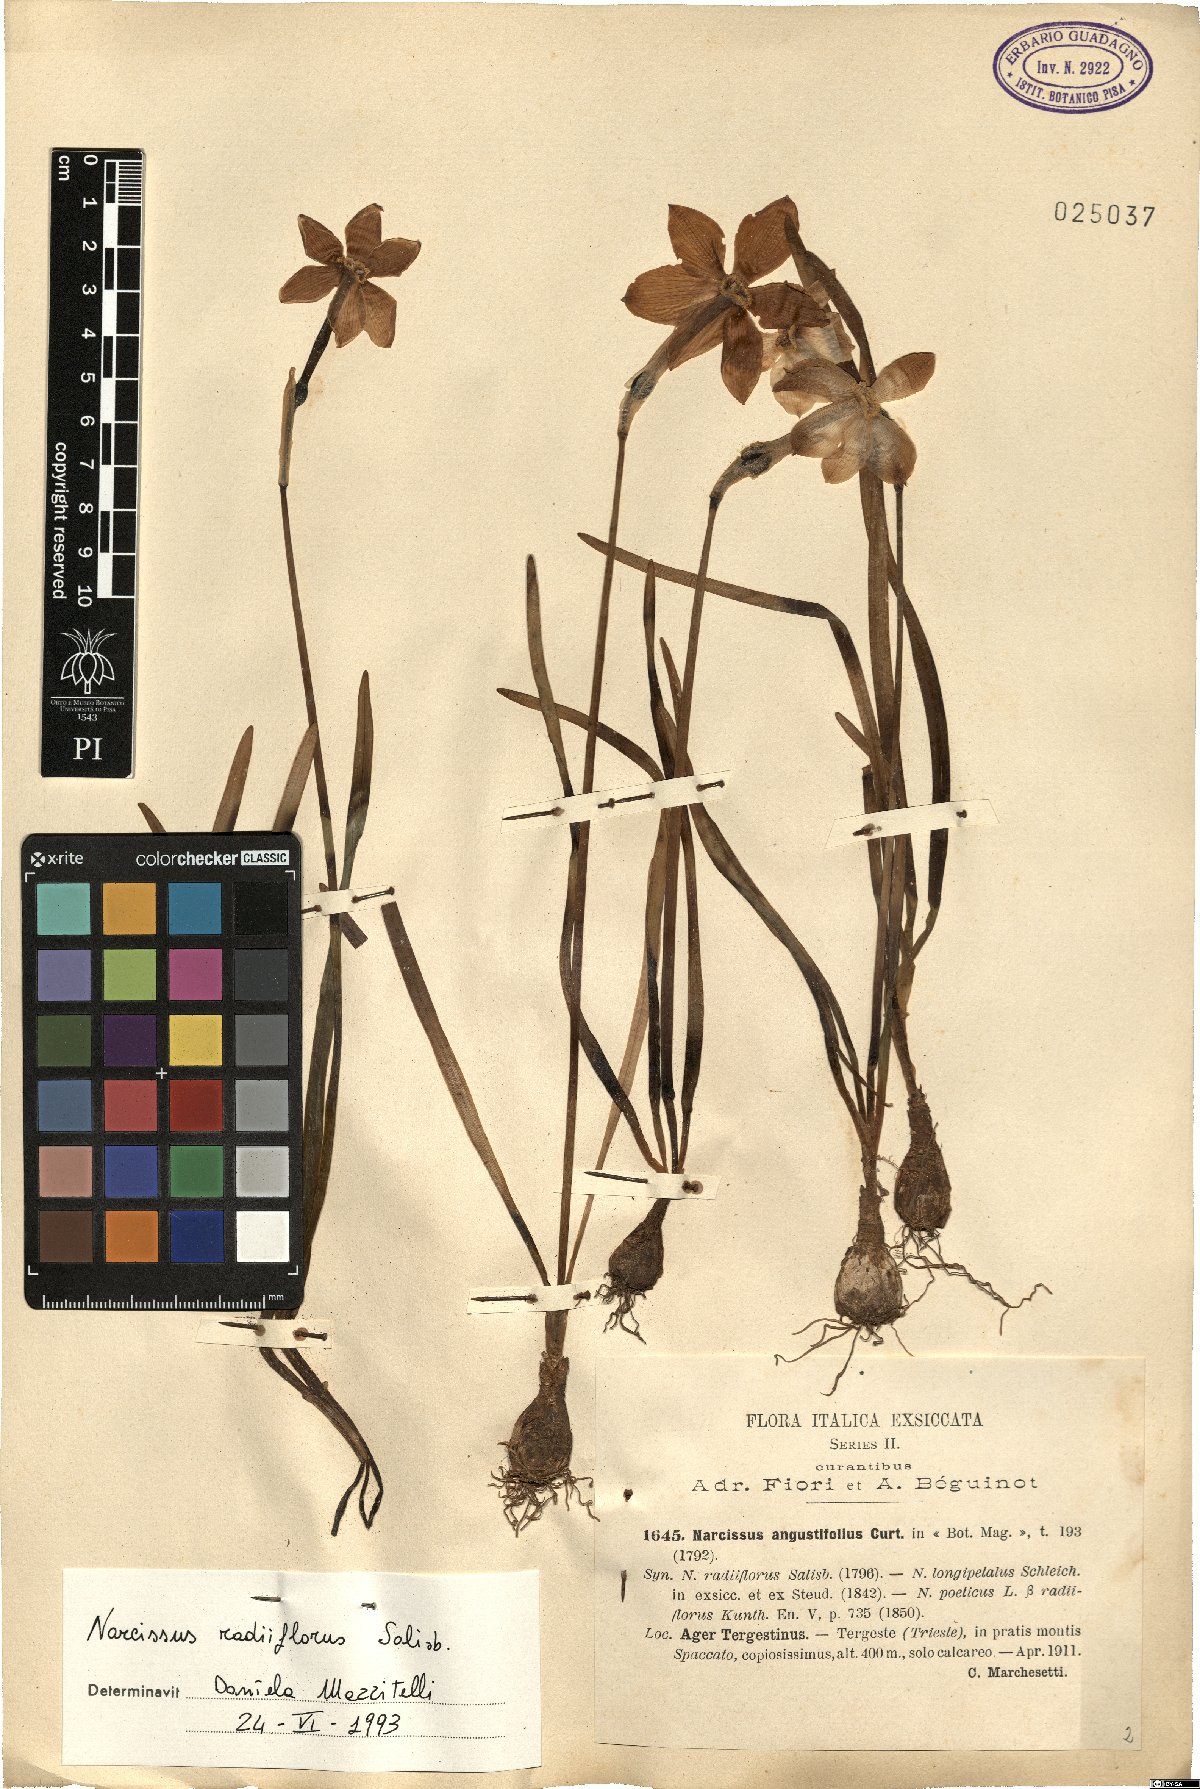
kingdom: Plantae
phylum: Tracheophyta
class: Liliopsida
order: Asparagales
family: Amaryllidaceae
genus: Narcissus
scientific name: Narcissus poeticus
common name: Pheasant's-eye daffodil
